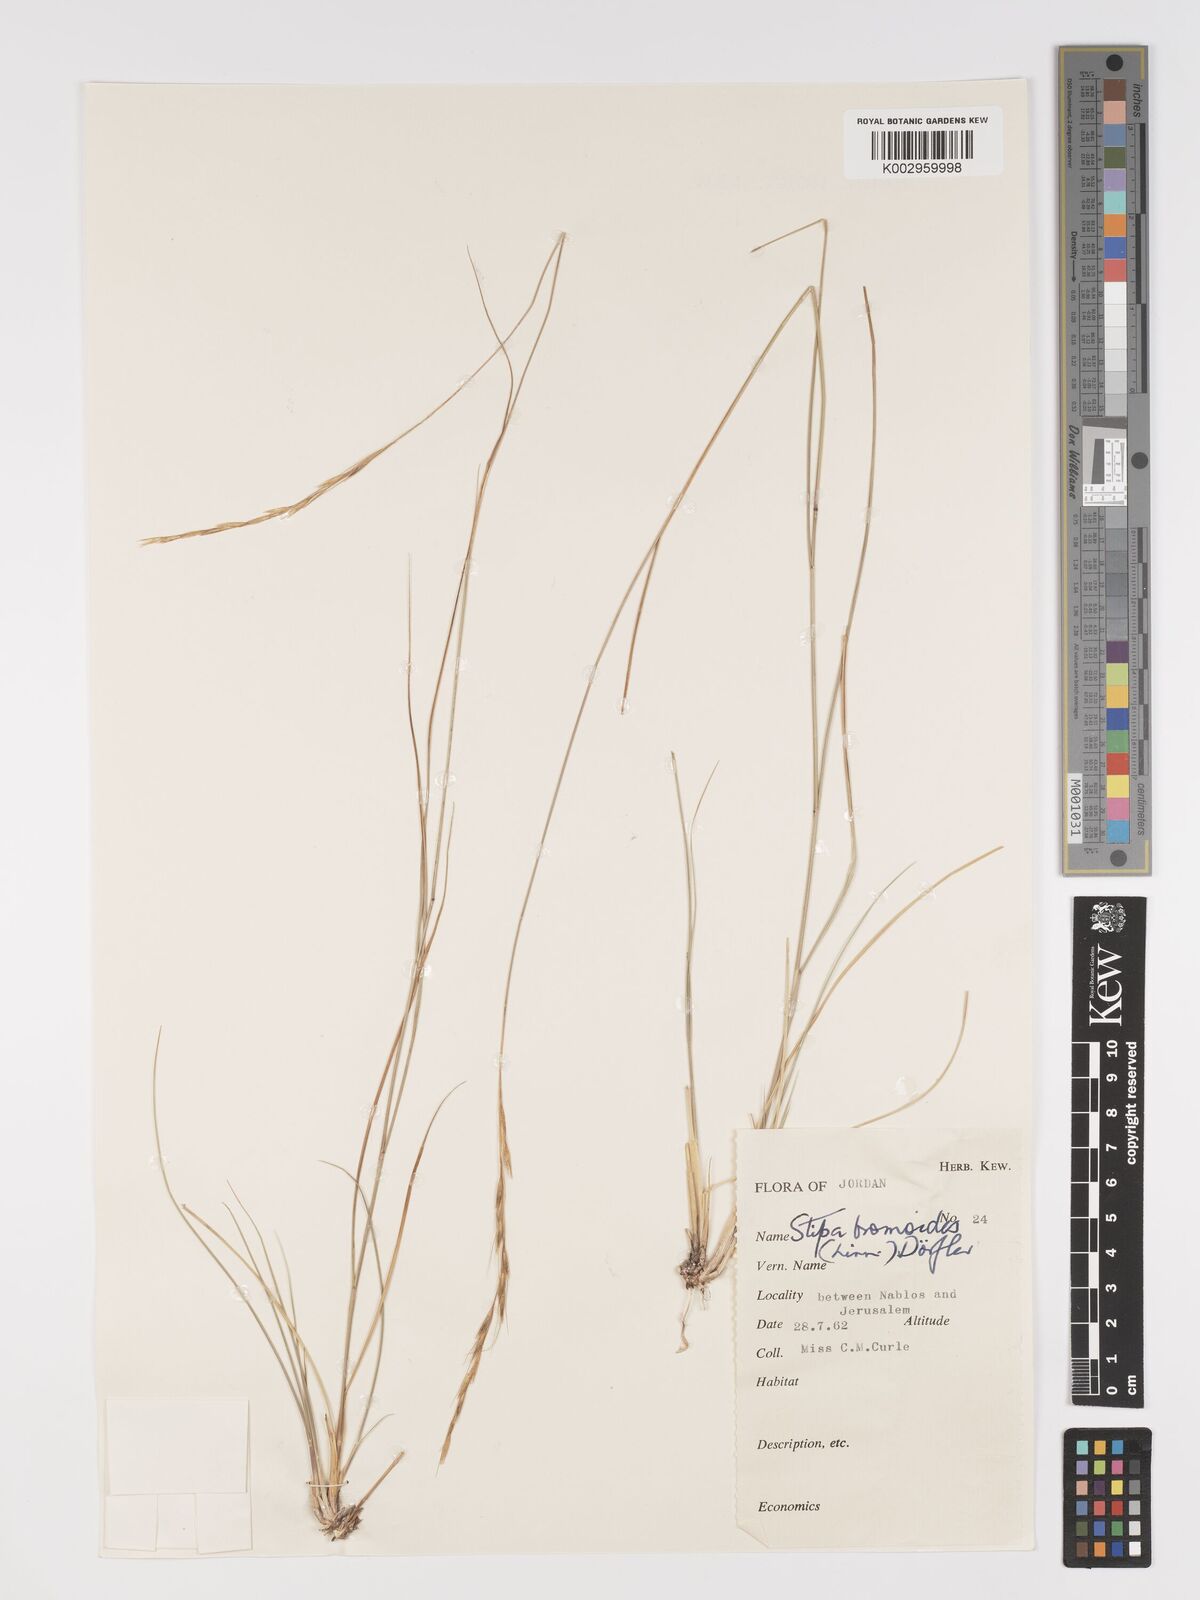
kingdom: Plantae
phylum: Tracheophyta
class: Liliopsida
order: Poales
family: Poaceae
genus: Achnatherum
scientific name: Achnatherum bromoides
